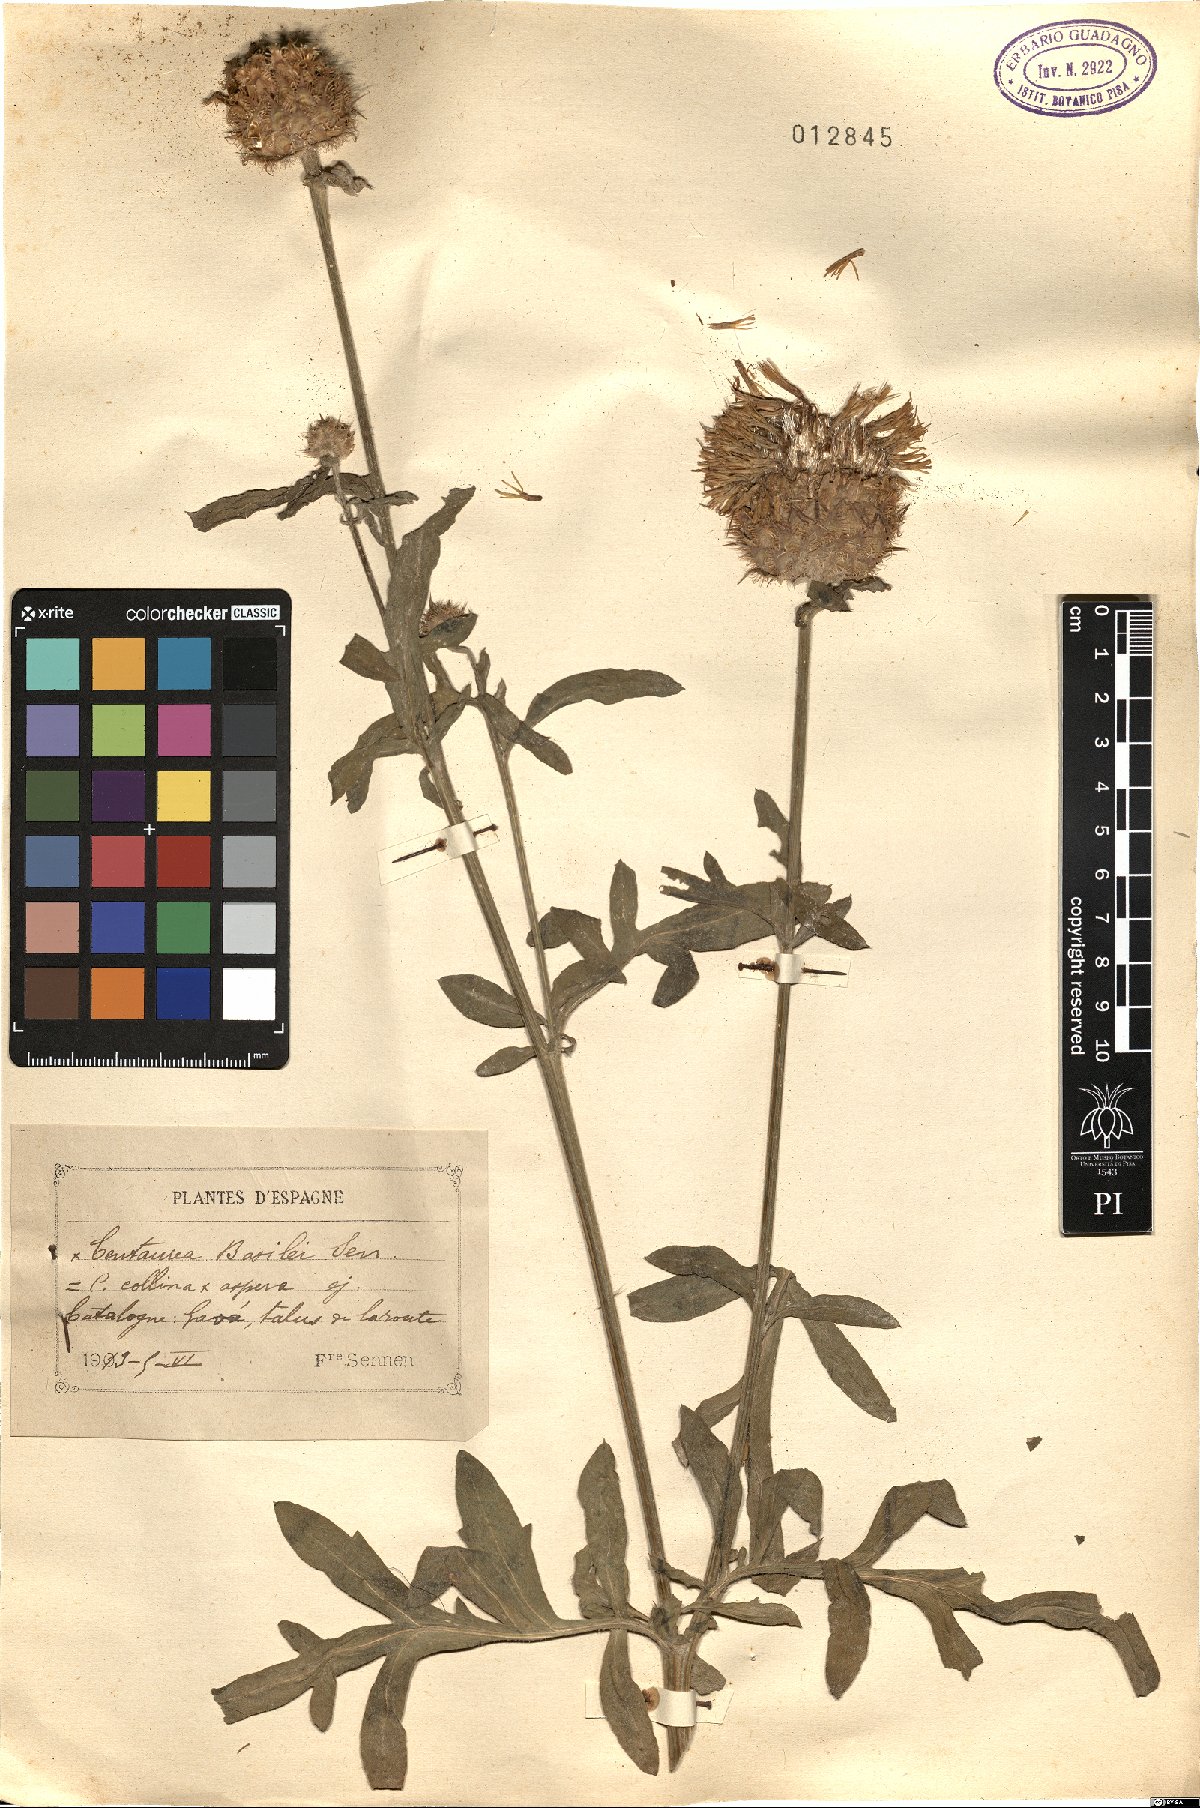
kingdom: Plantae
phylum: Tracheophyta
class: Magnoliopsida
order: Asterales
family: Asteraceae
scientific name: Asteraceae
